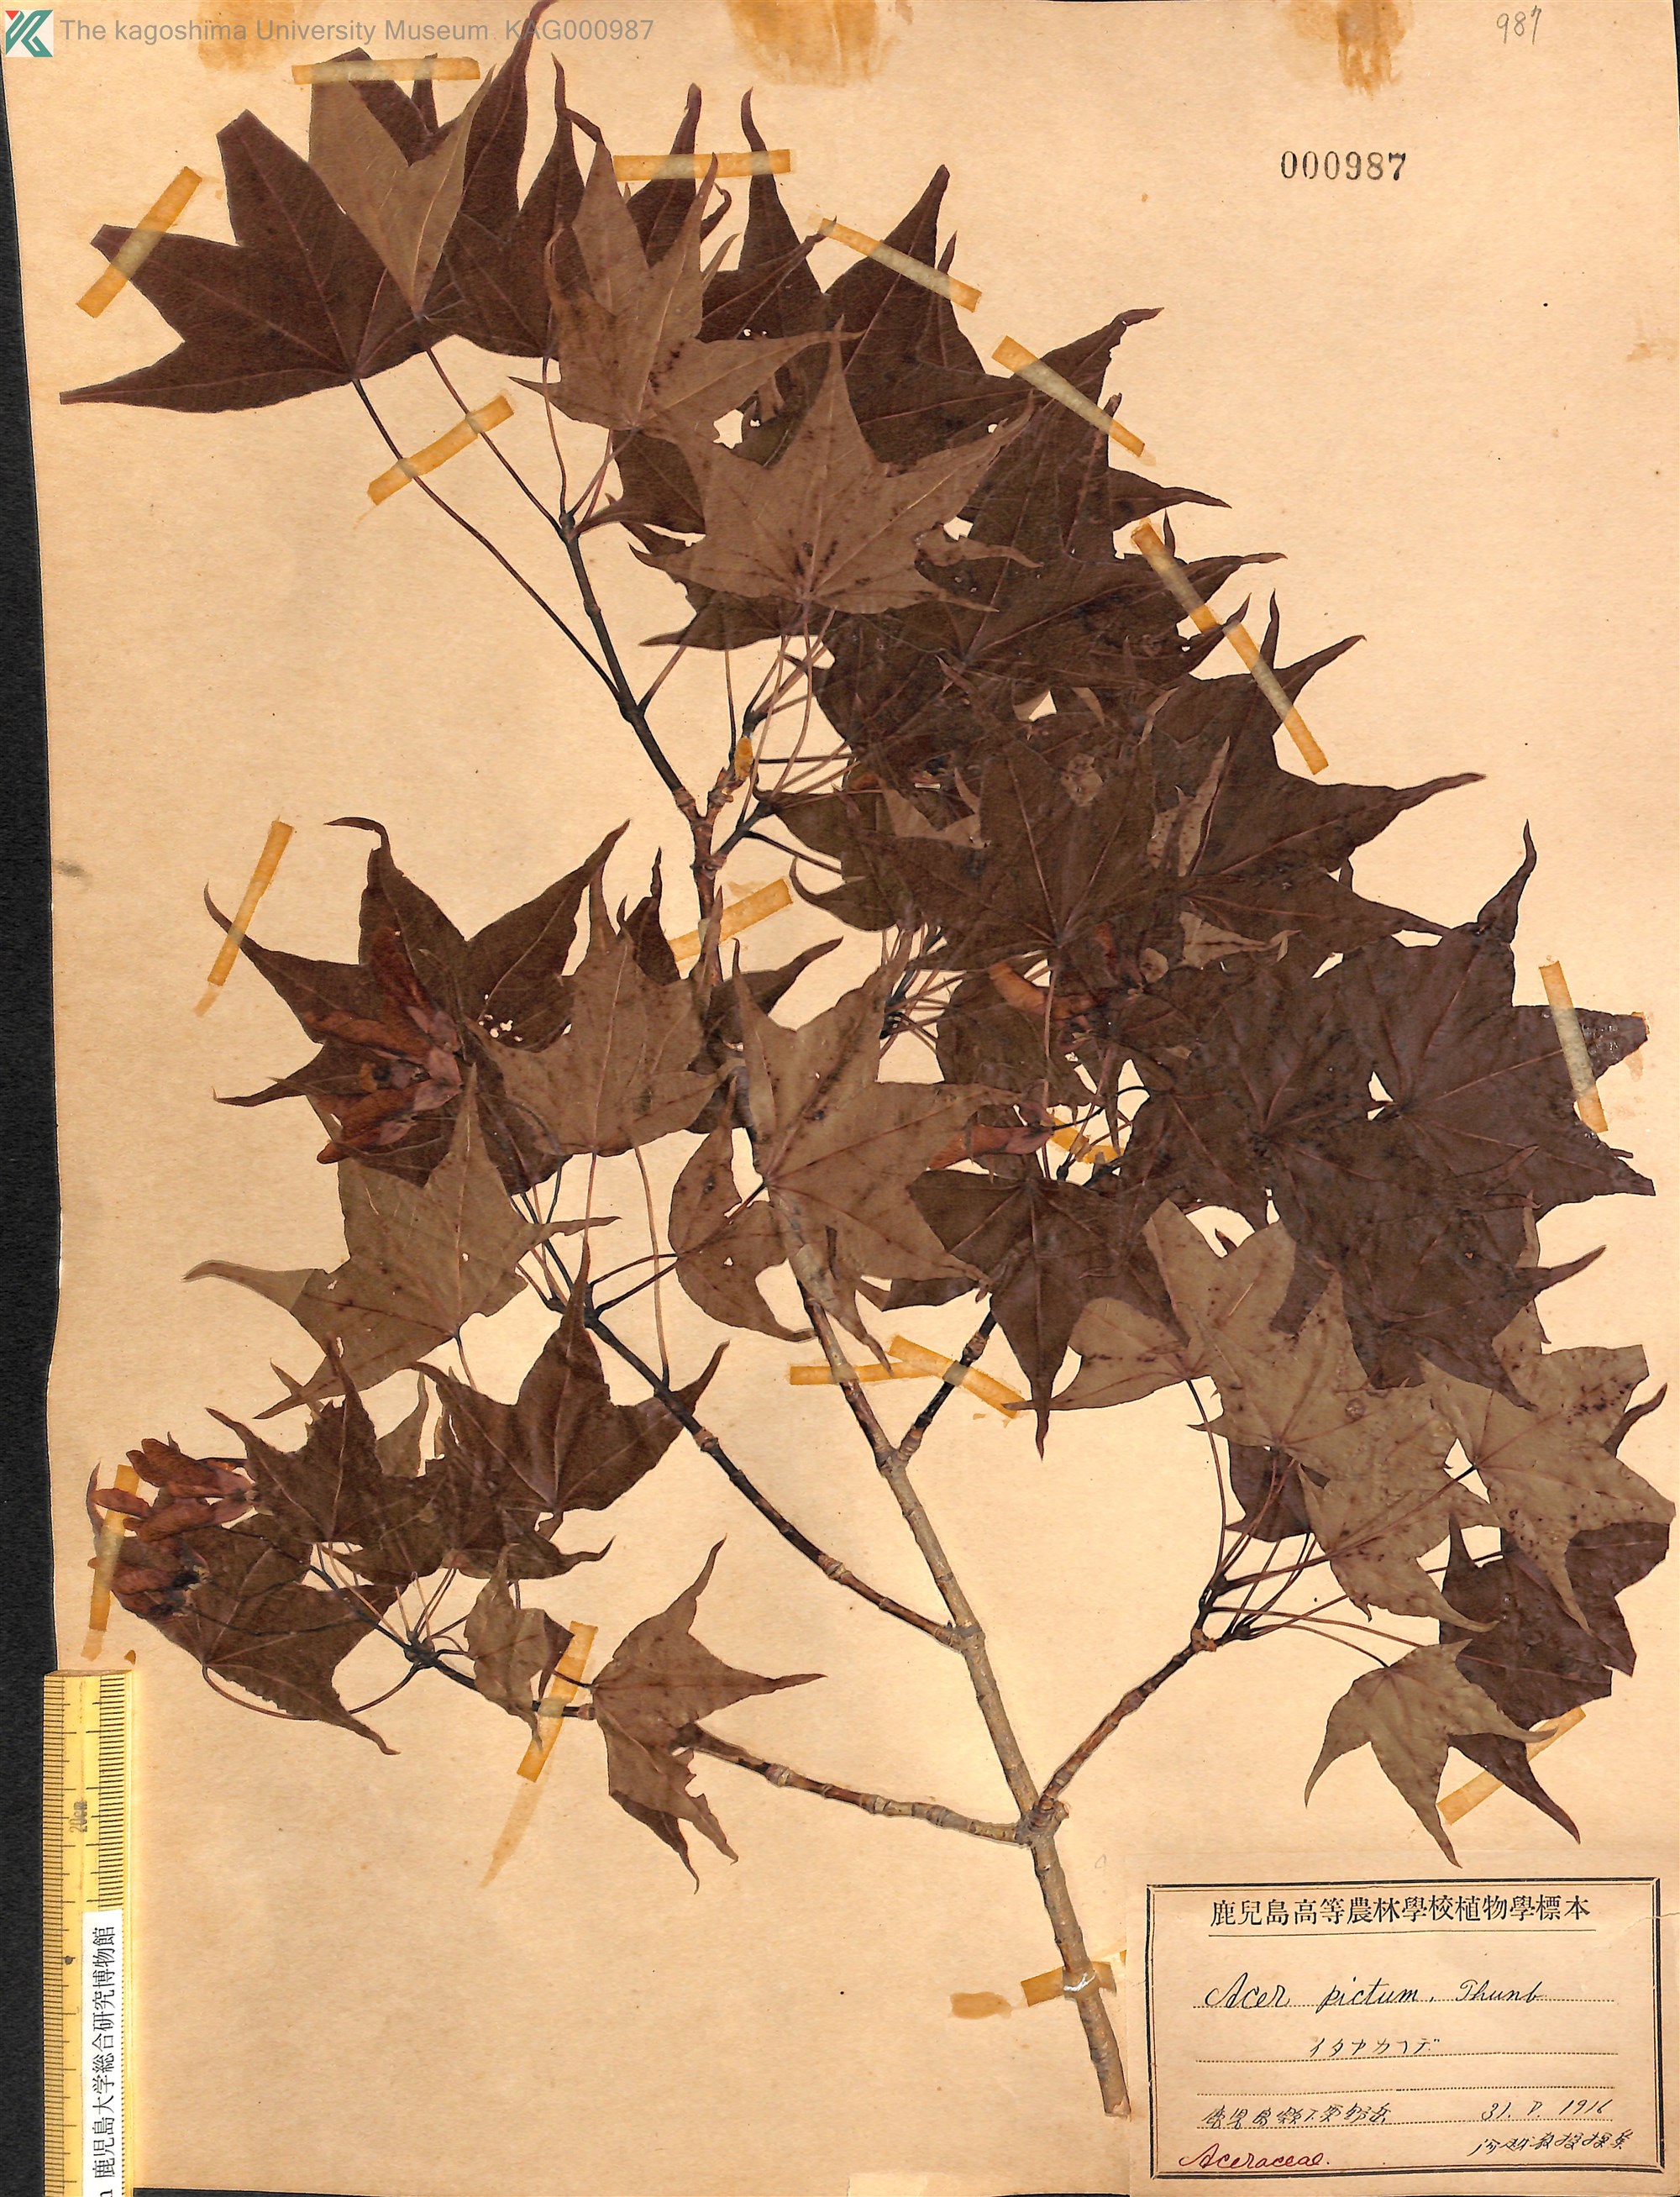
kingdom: Plantae
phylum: Tracheophyta
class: Magnoliopsida
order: Sapindales
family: Sapindaceae
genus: Acer
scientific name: Acer pictum
